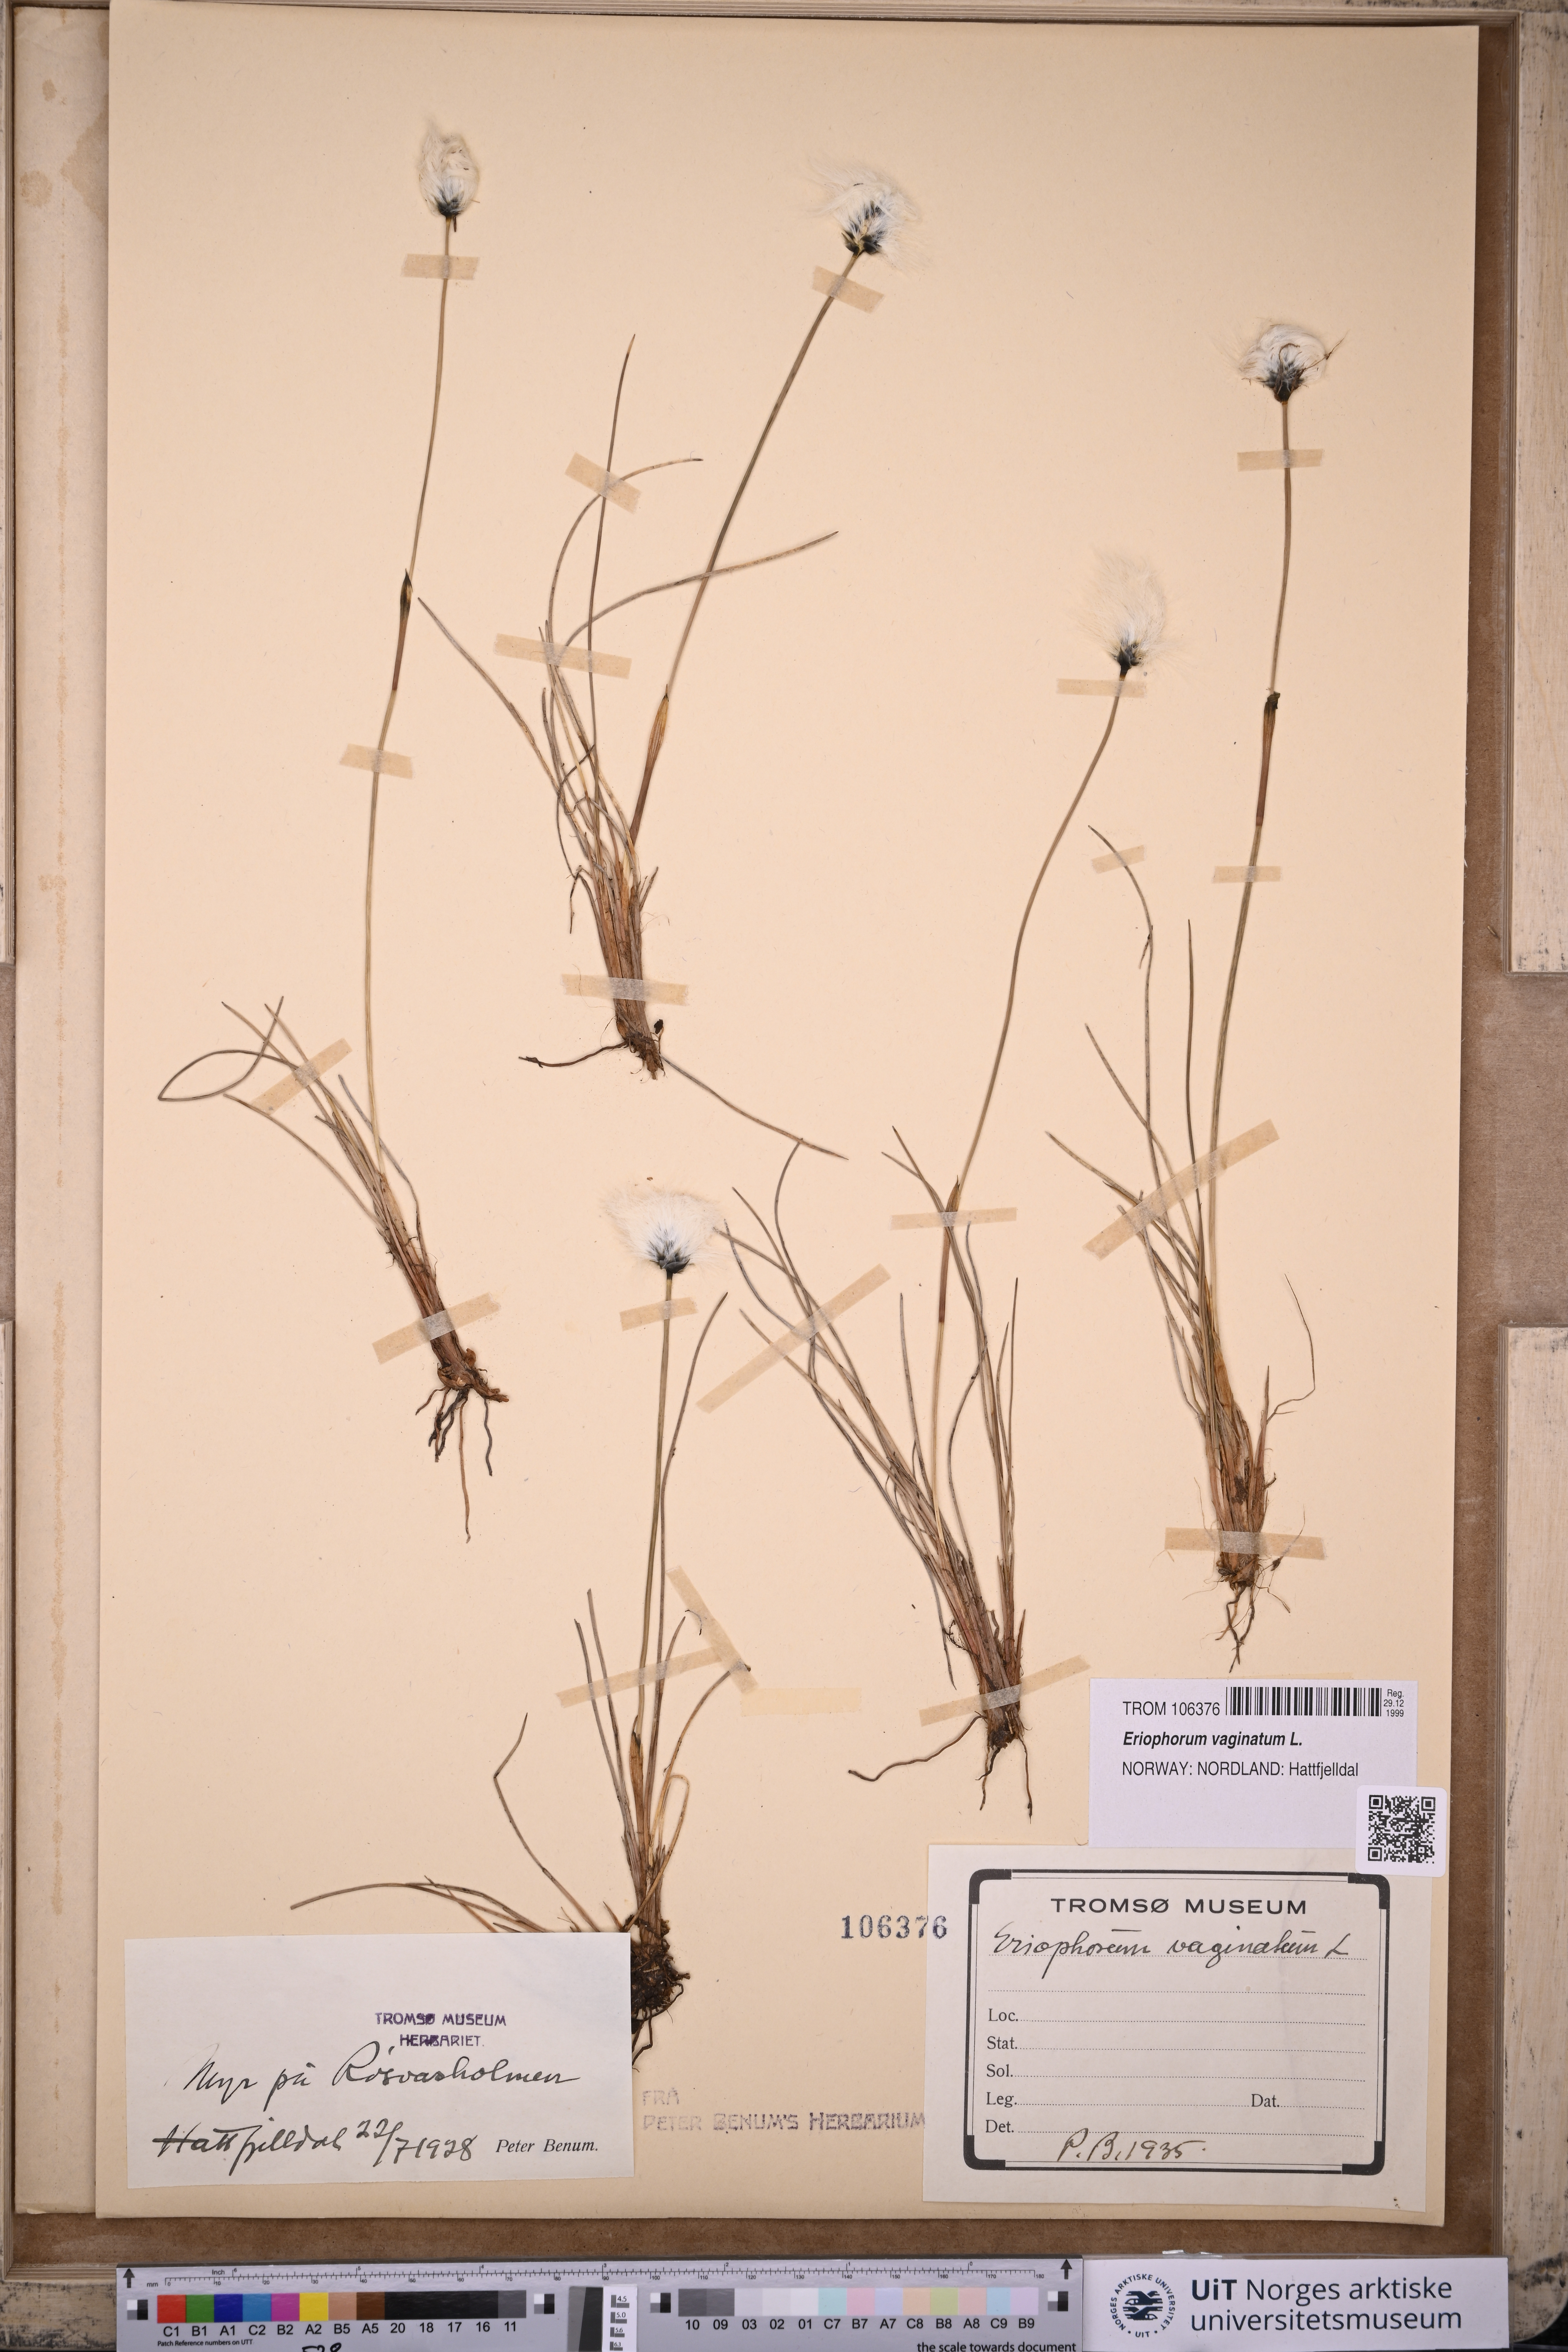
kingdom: Plantae
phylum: Tracheophyta
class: Liliopsida
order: Poales
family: Cyperaceae
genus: Eriophorum
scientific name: Eriophorum vaginatum
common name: Hare's-tail cottongrass
